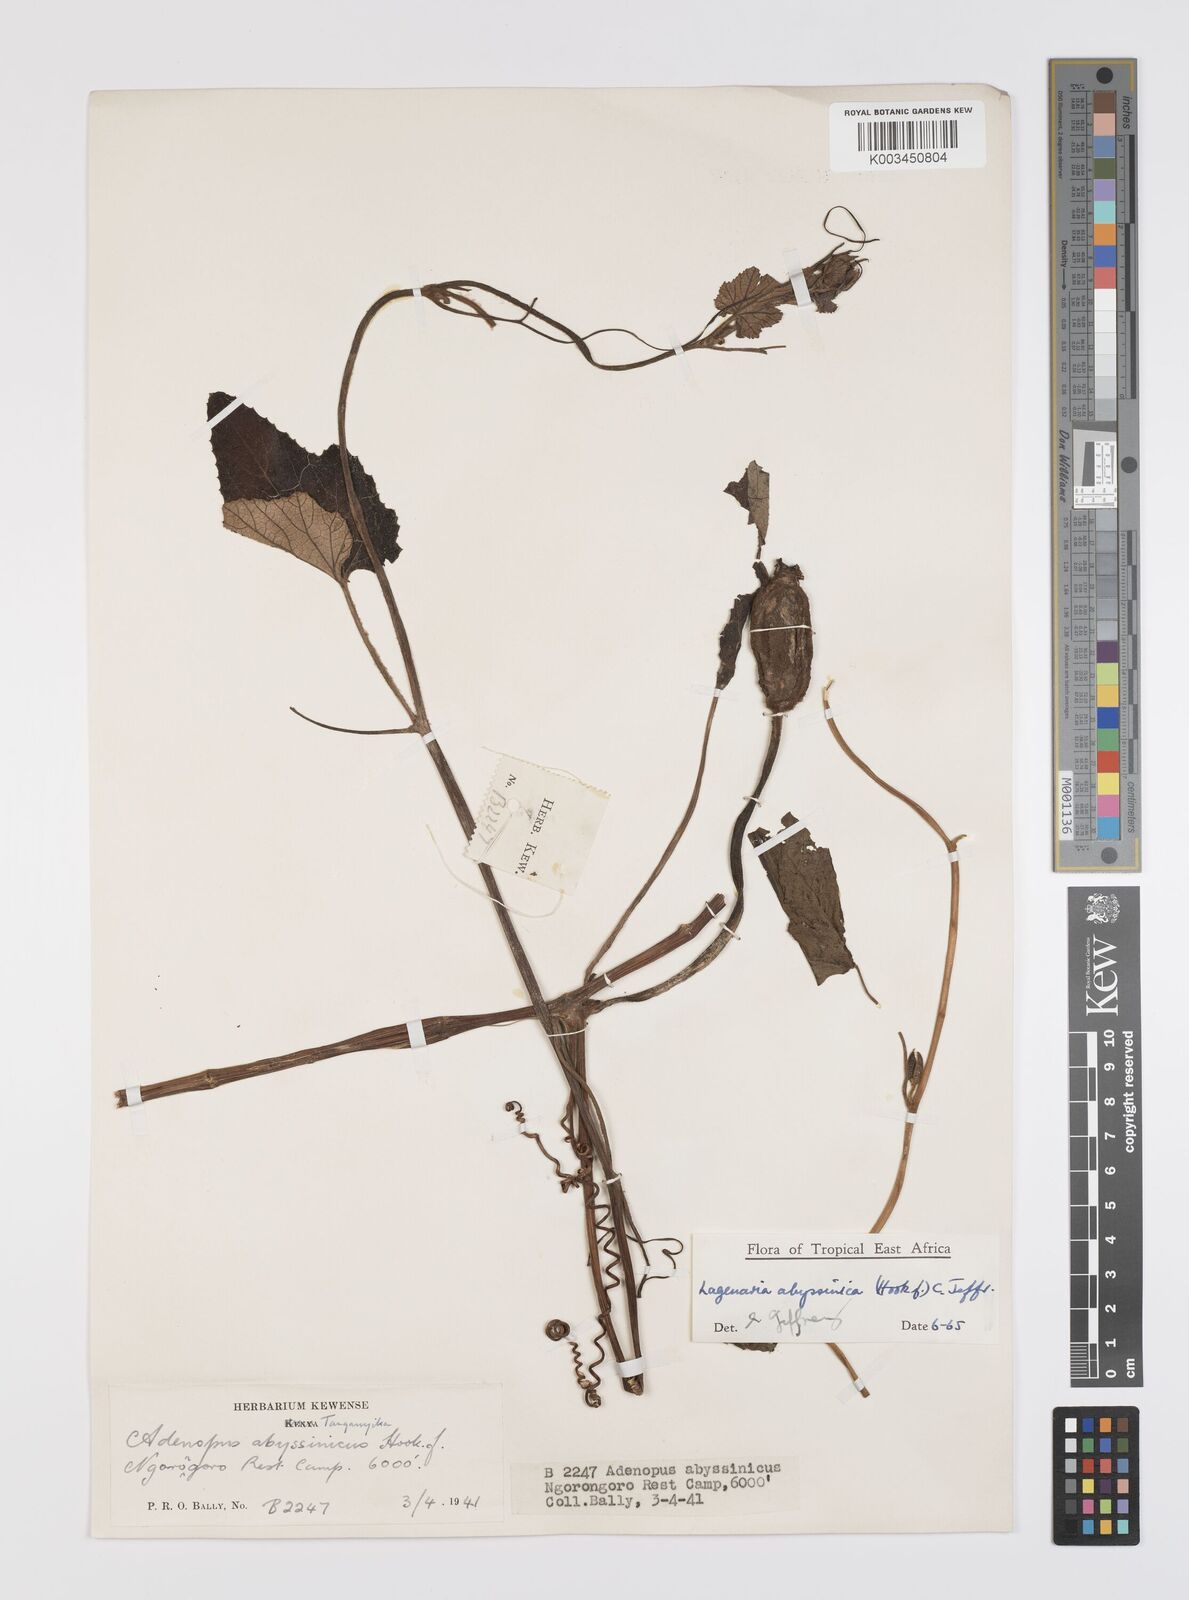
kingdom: Plantae
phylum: Tracheophyta
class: Magnoliopsida
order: Cucurbitales
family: Cucurbitaceae
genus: Lagenaria
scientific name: Lagenaria abyssinica
